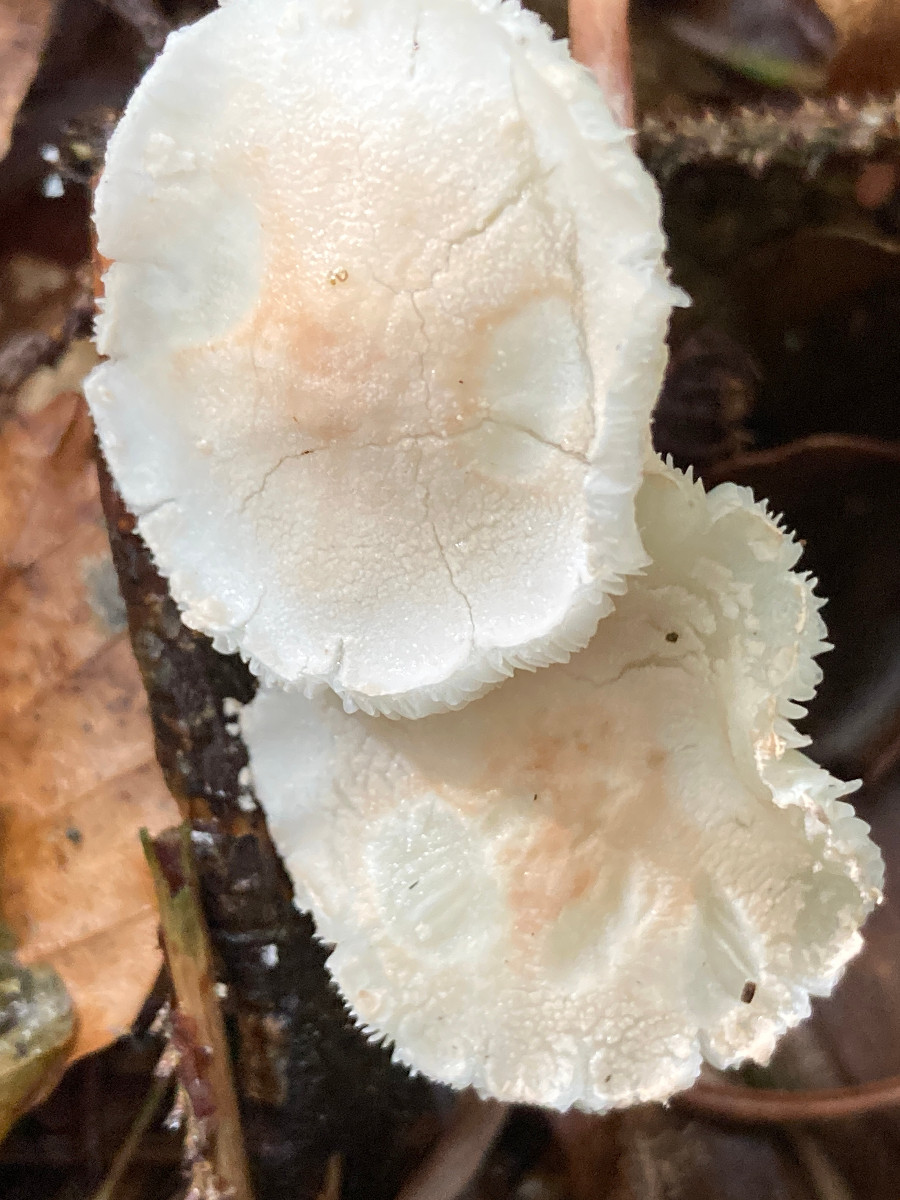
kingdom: Fungi
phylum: Basidiomycota
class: Agaricomycetes
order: Agaricales
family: Agaricaceae
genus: Cystolepiota
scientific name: Cystolepiota seminuda
